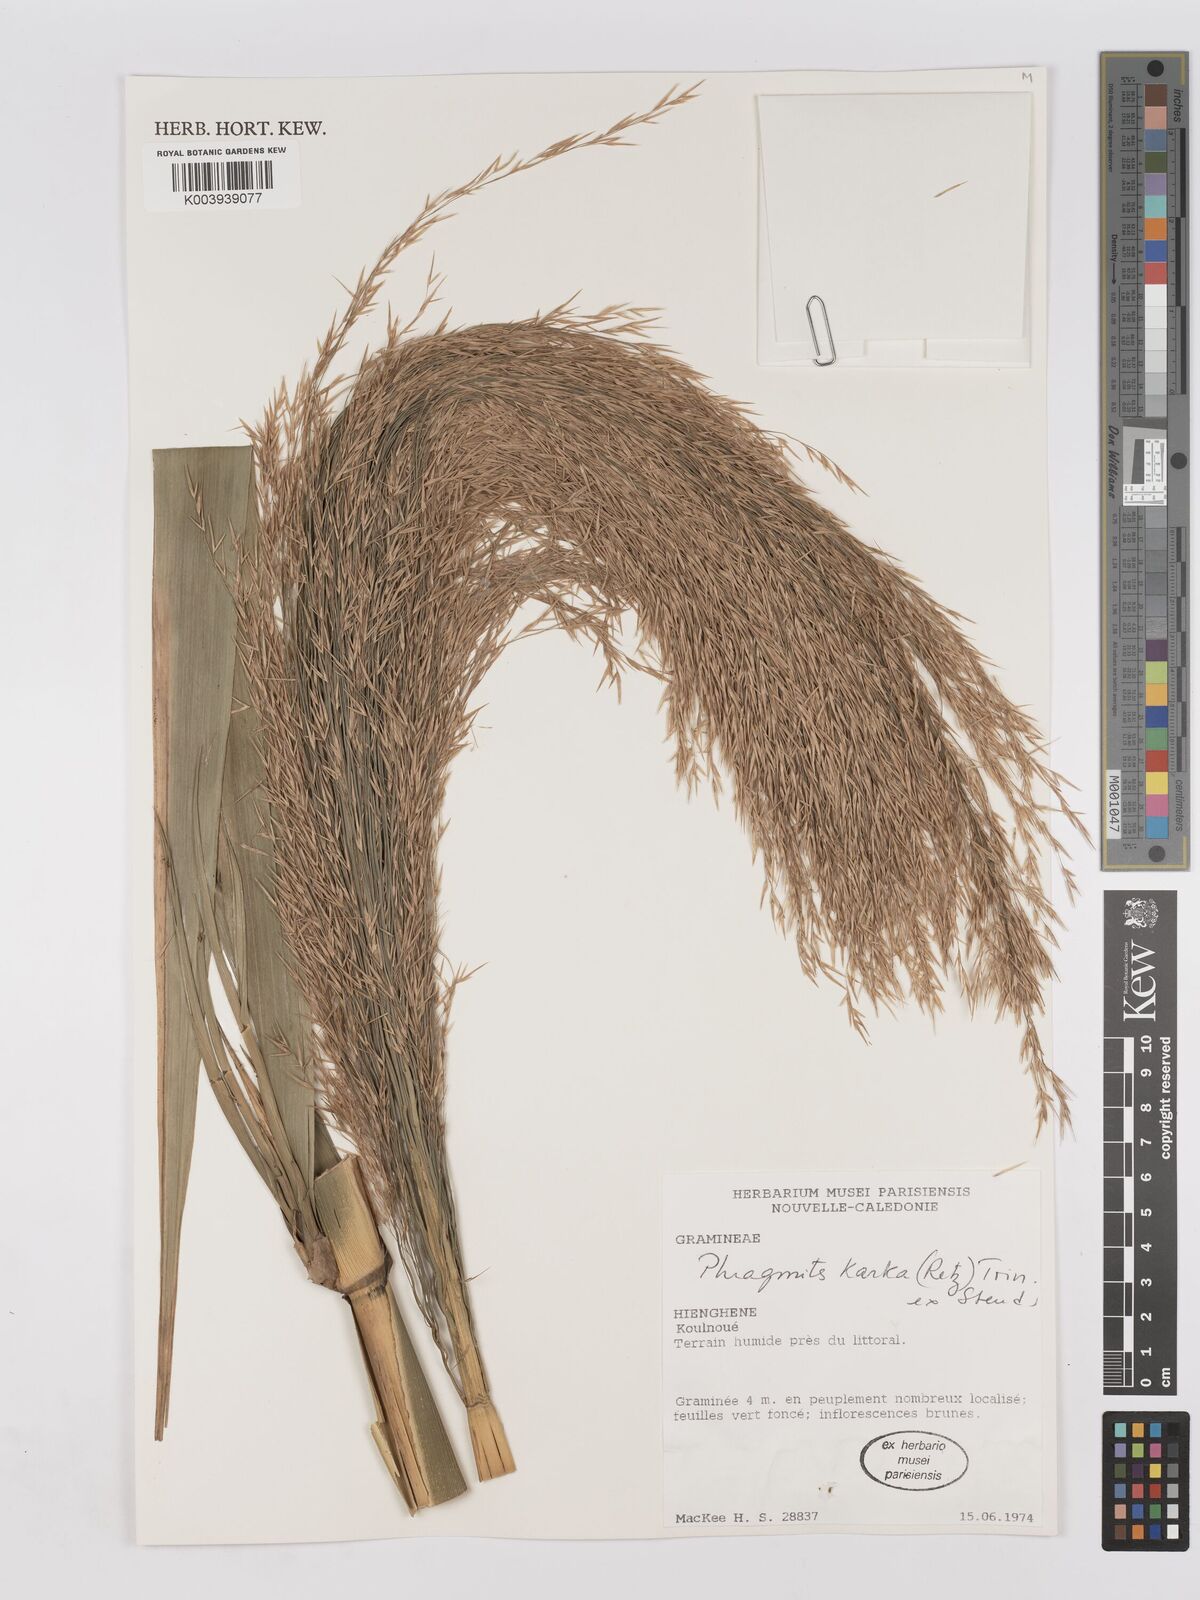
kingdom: Plantae
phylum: Tracheophyta
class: Liliopsida
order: Poales
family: Poaceae
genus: Phragmites
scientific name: Phragmites karka
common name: Tropical reed
